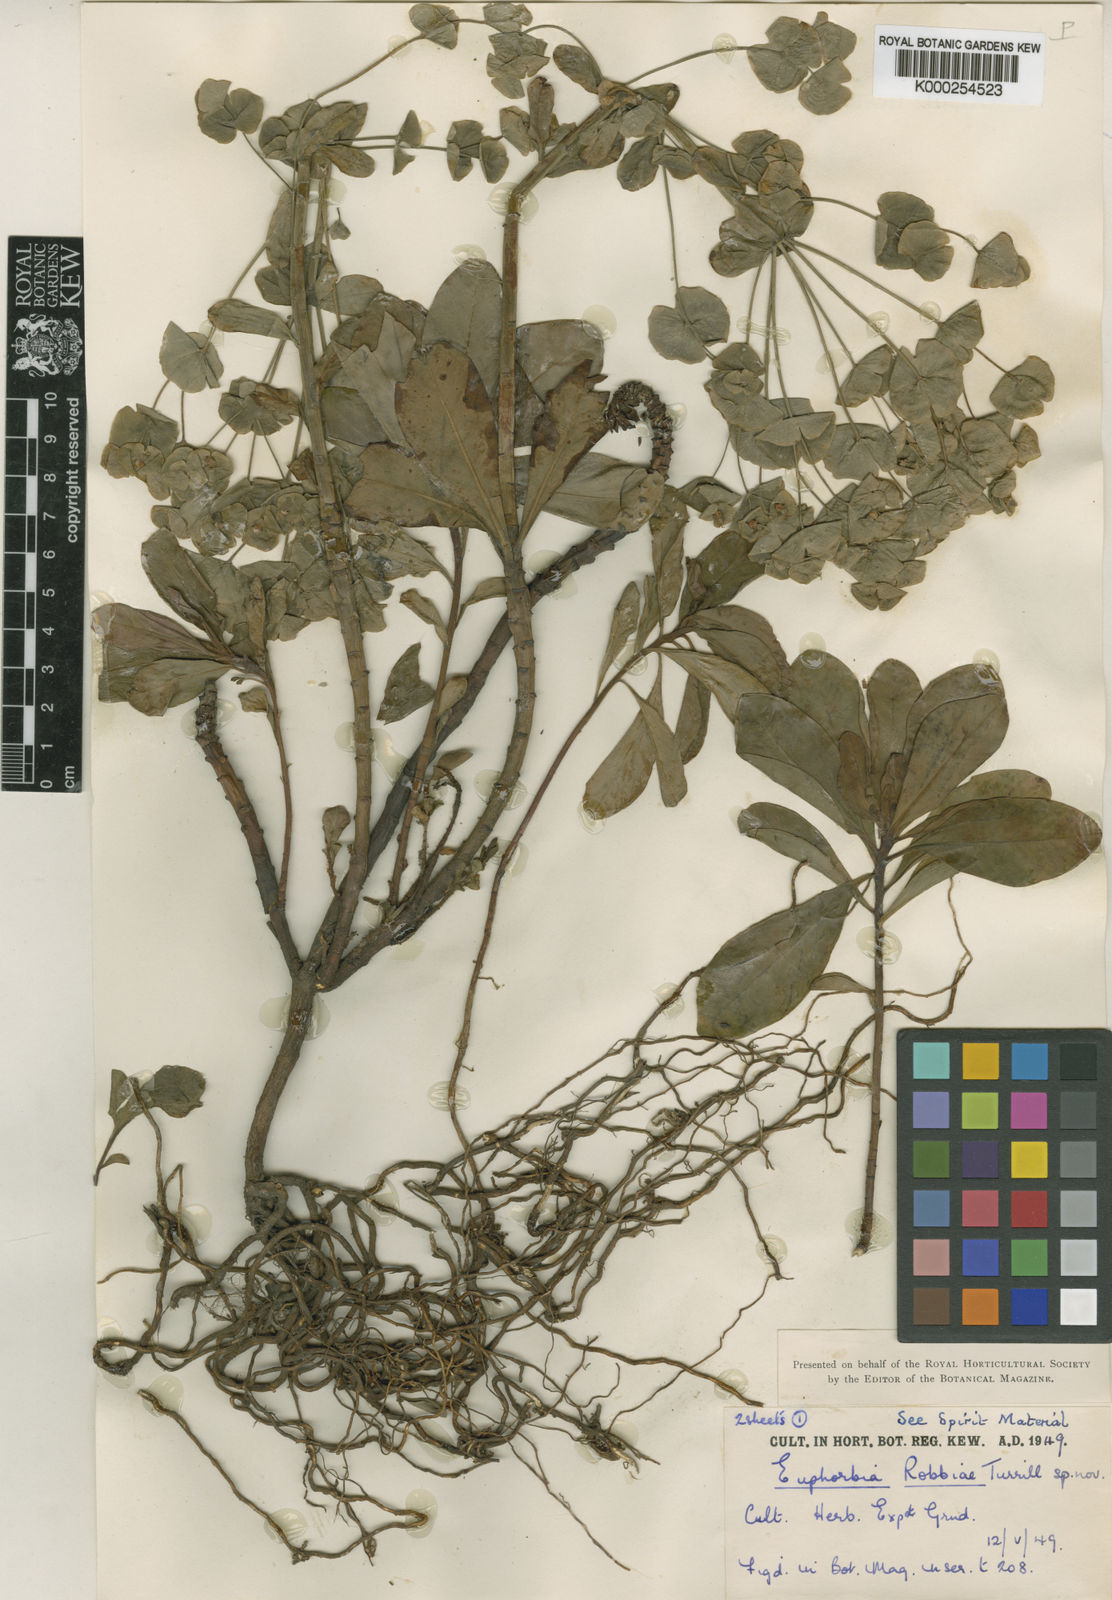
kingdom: Plantae
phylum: Tracheophyta
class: Magnoliopsida
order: Malpighiales
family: Euphorbiaceae
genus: Euphorbia
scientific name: Euphorbia amygdaloides
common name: Wood spurge
